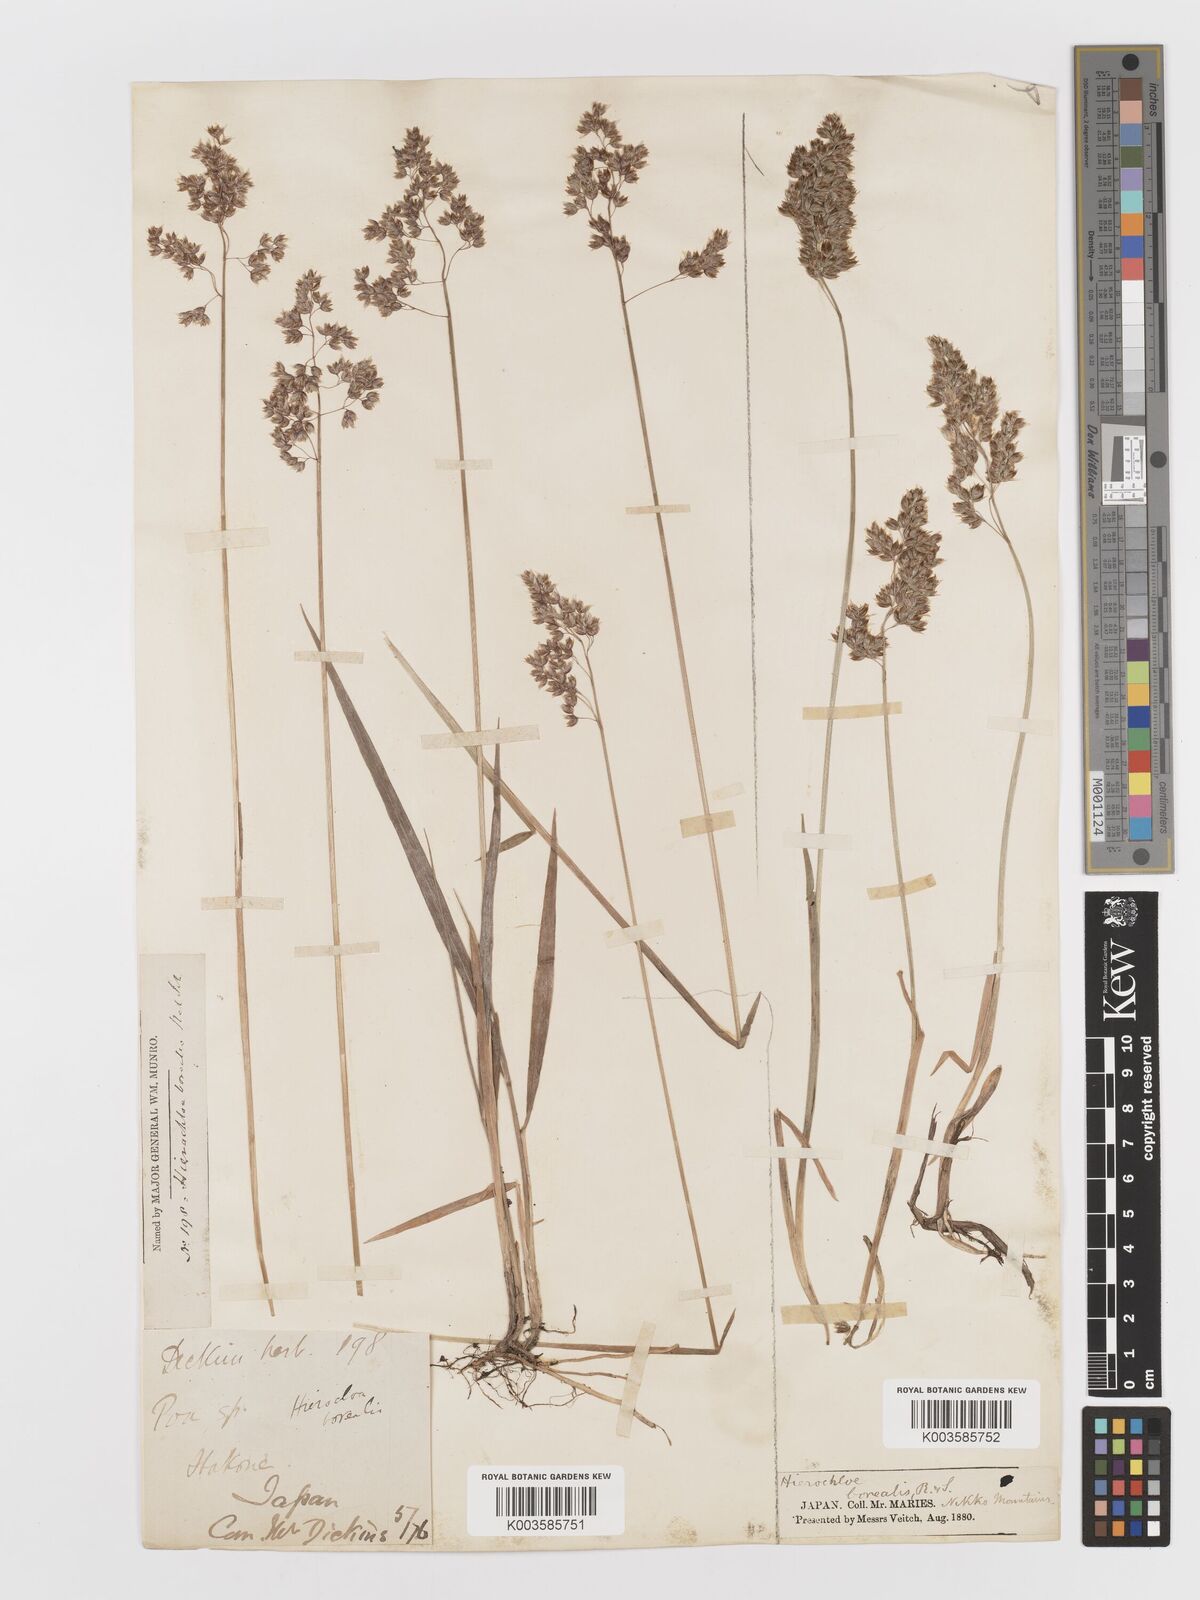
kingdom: Plantae
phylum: Tracheophyta
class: Liliopsida
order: Poales
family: Poaceae
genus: Anthoxanthum
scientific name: Anthoxanthum nitens
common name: Holy grass
